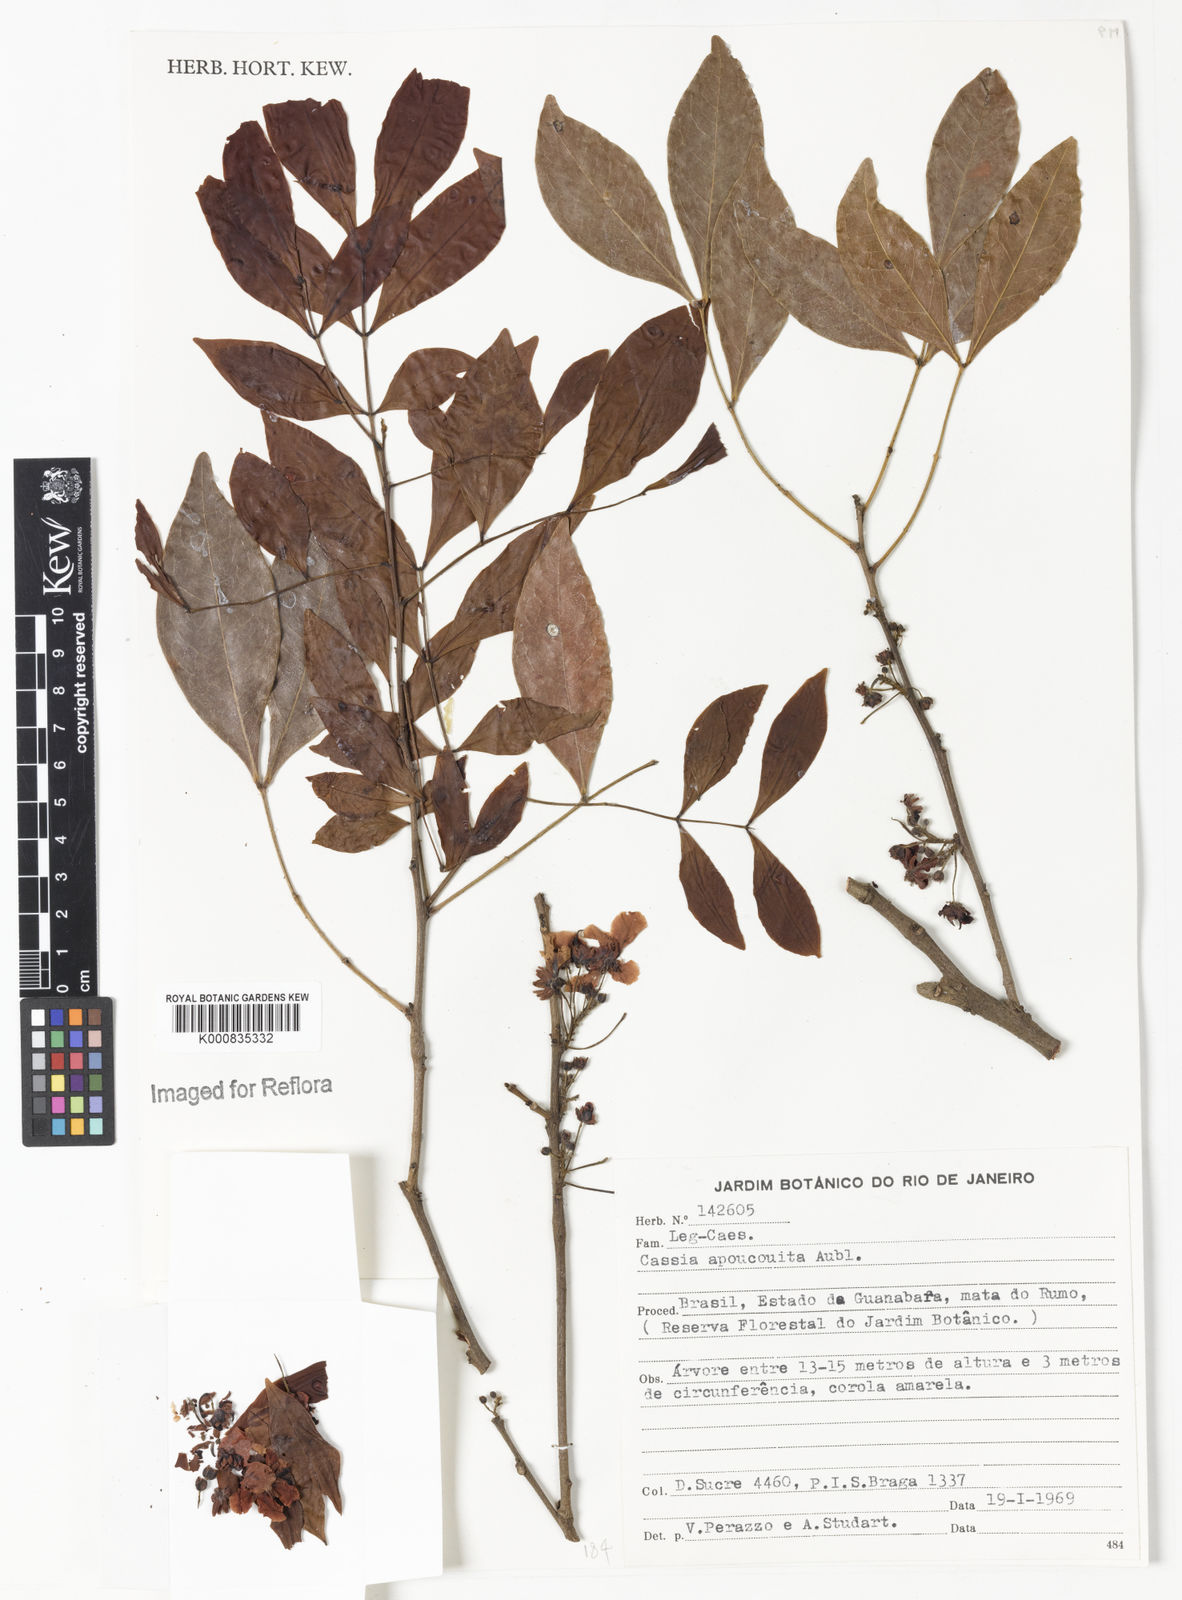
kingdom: Plantae
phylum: Tracheophyta
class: Magnoliopsida
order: Fabales
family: Fabaceae
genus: Chamaecrista
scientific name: Chamaecrista apoucouita
